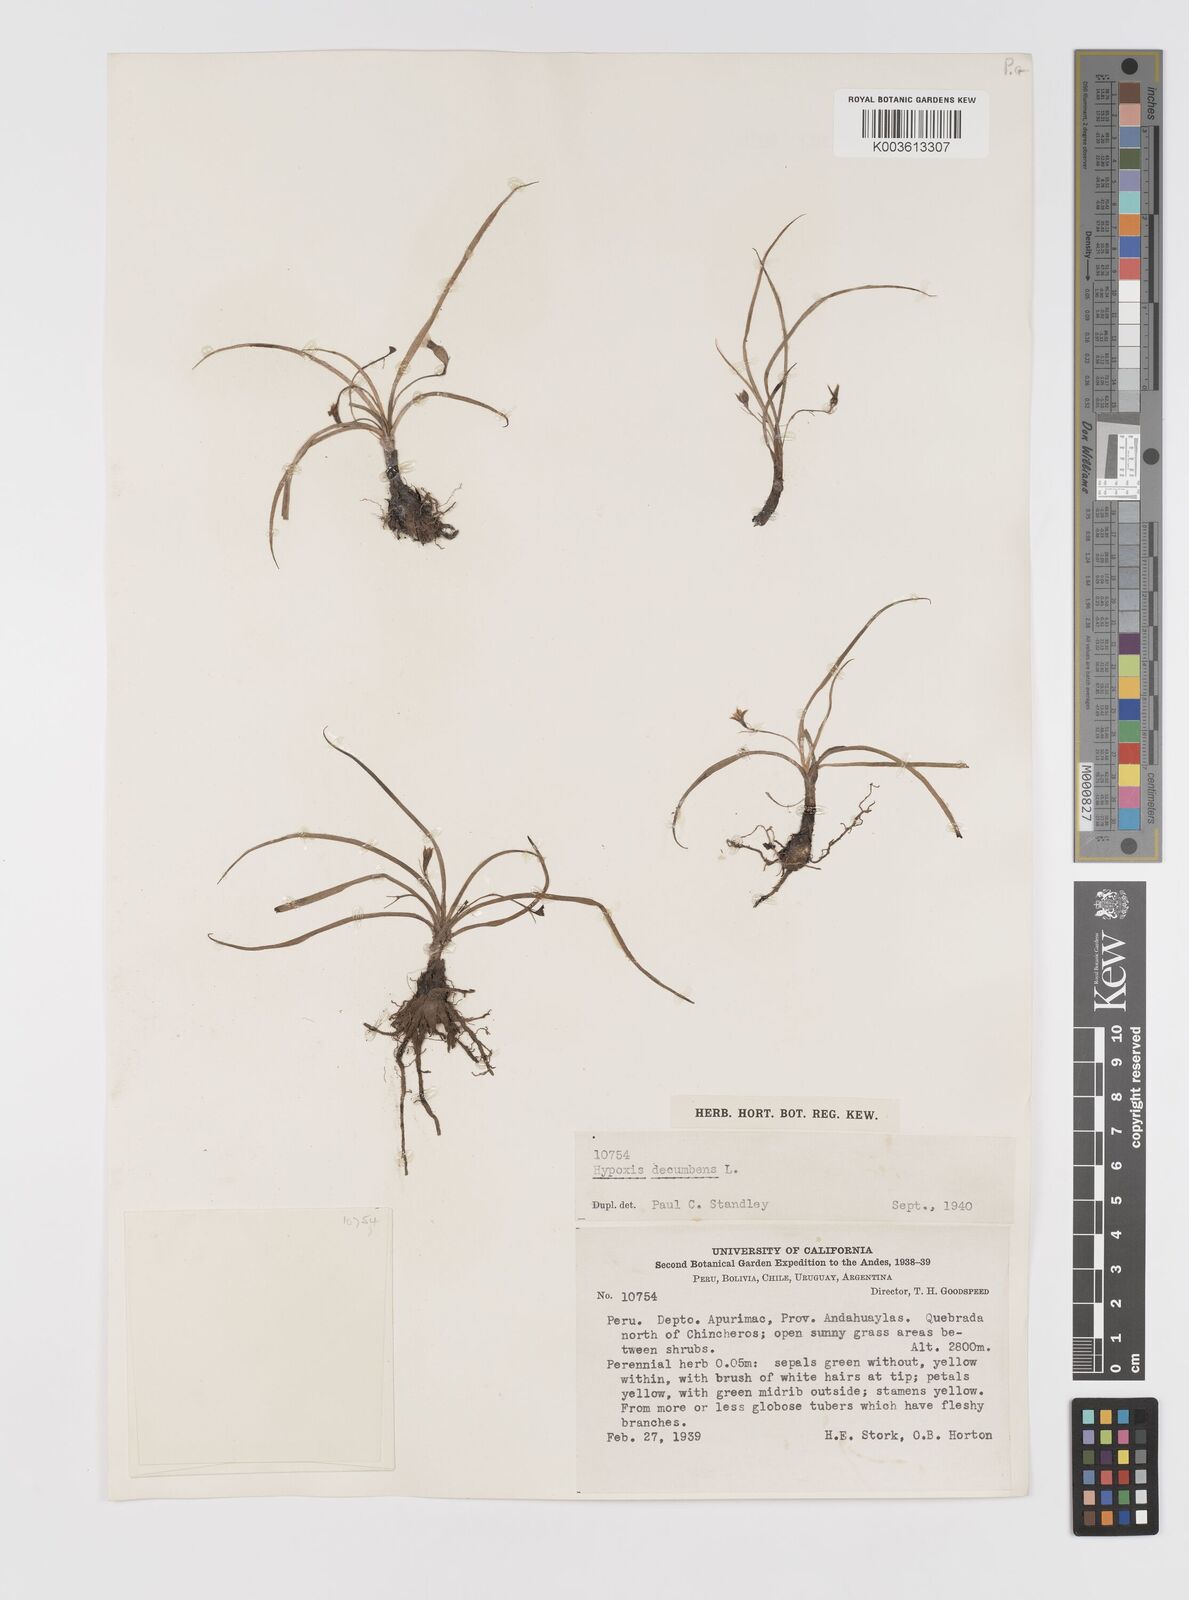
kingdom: Plantae
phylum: Tracheophyta
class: Liliopsida
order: Asparagales
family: Hypoxidaceae
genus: Hypoxis
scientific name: Hypoxis decumbens
